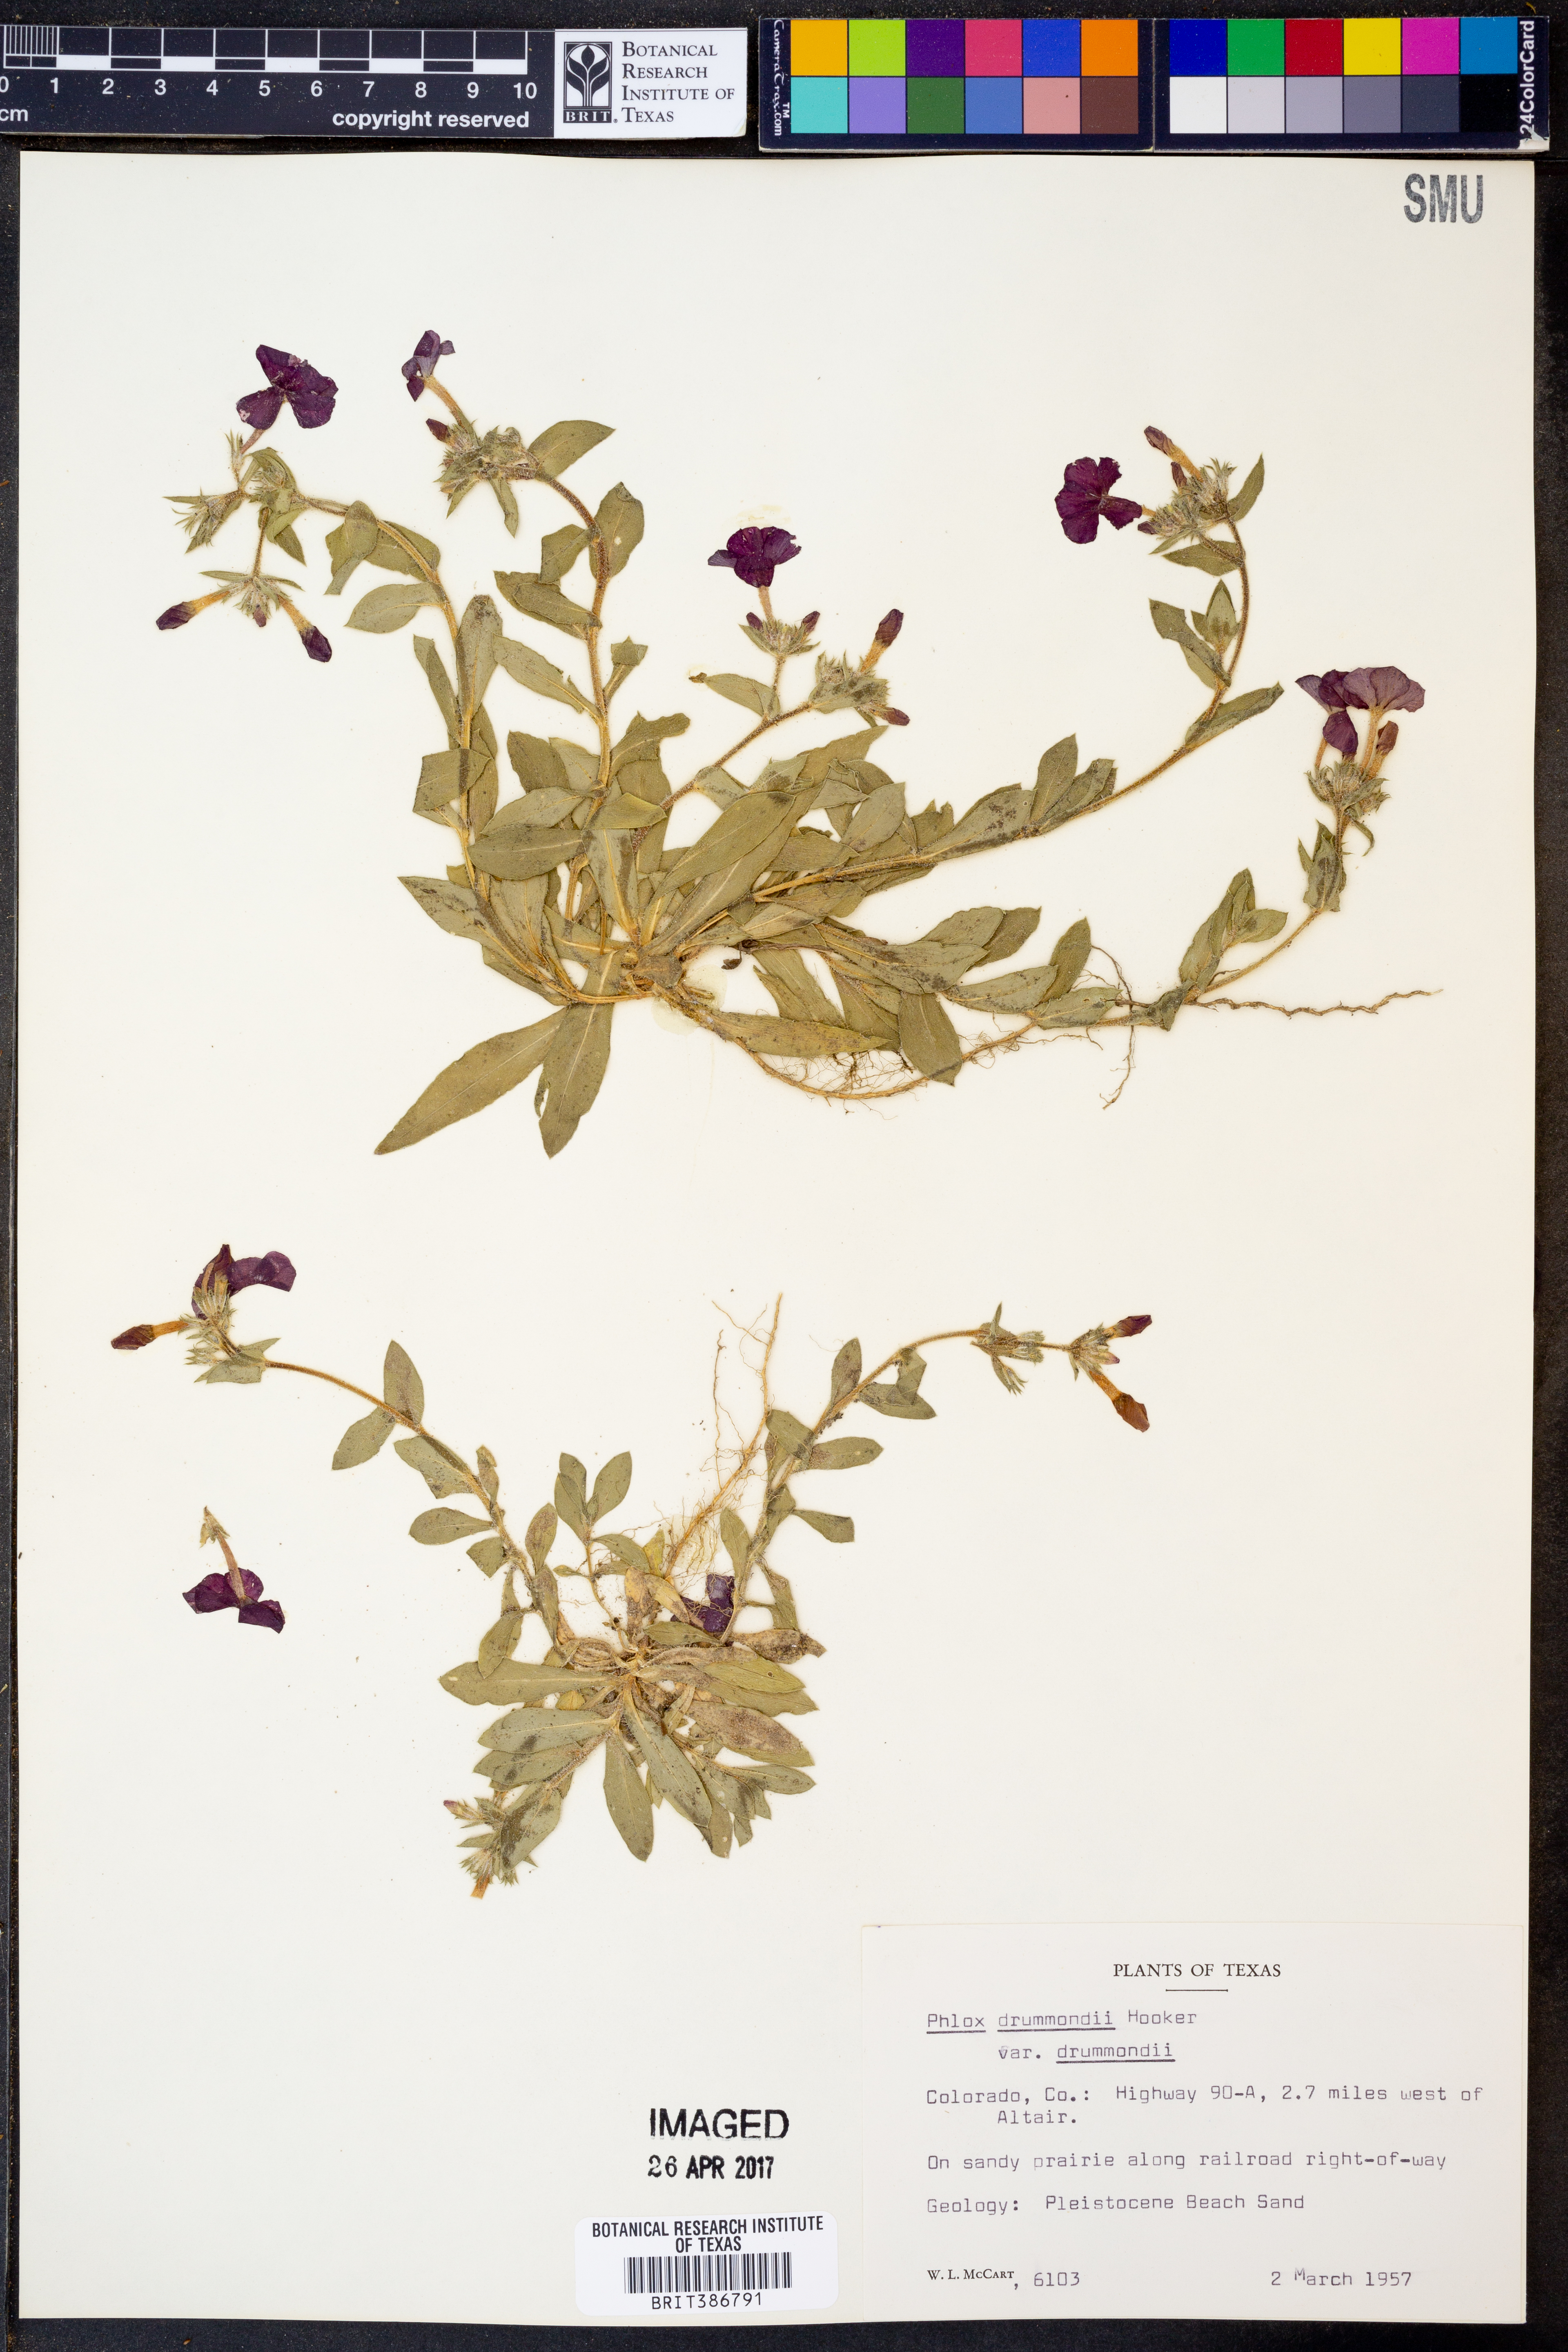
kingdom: Plantae
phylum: Tracheophyta
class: Magnoliopsida
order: Ericales
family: Polemoniaceae
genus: Phlox
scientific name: Phlox drummondii
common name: Drummond's phlox
